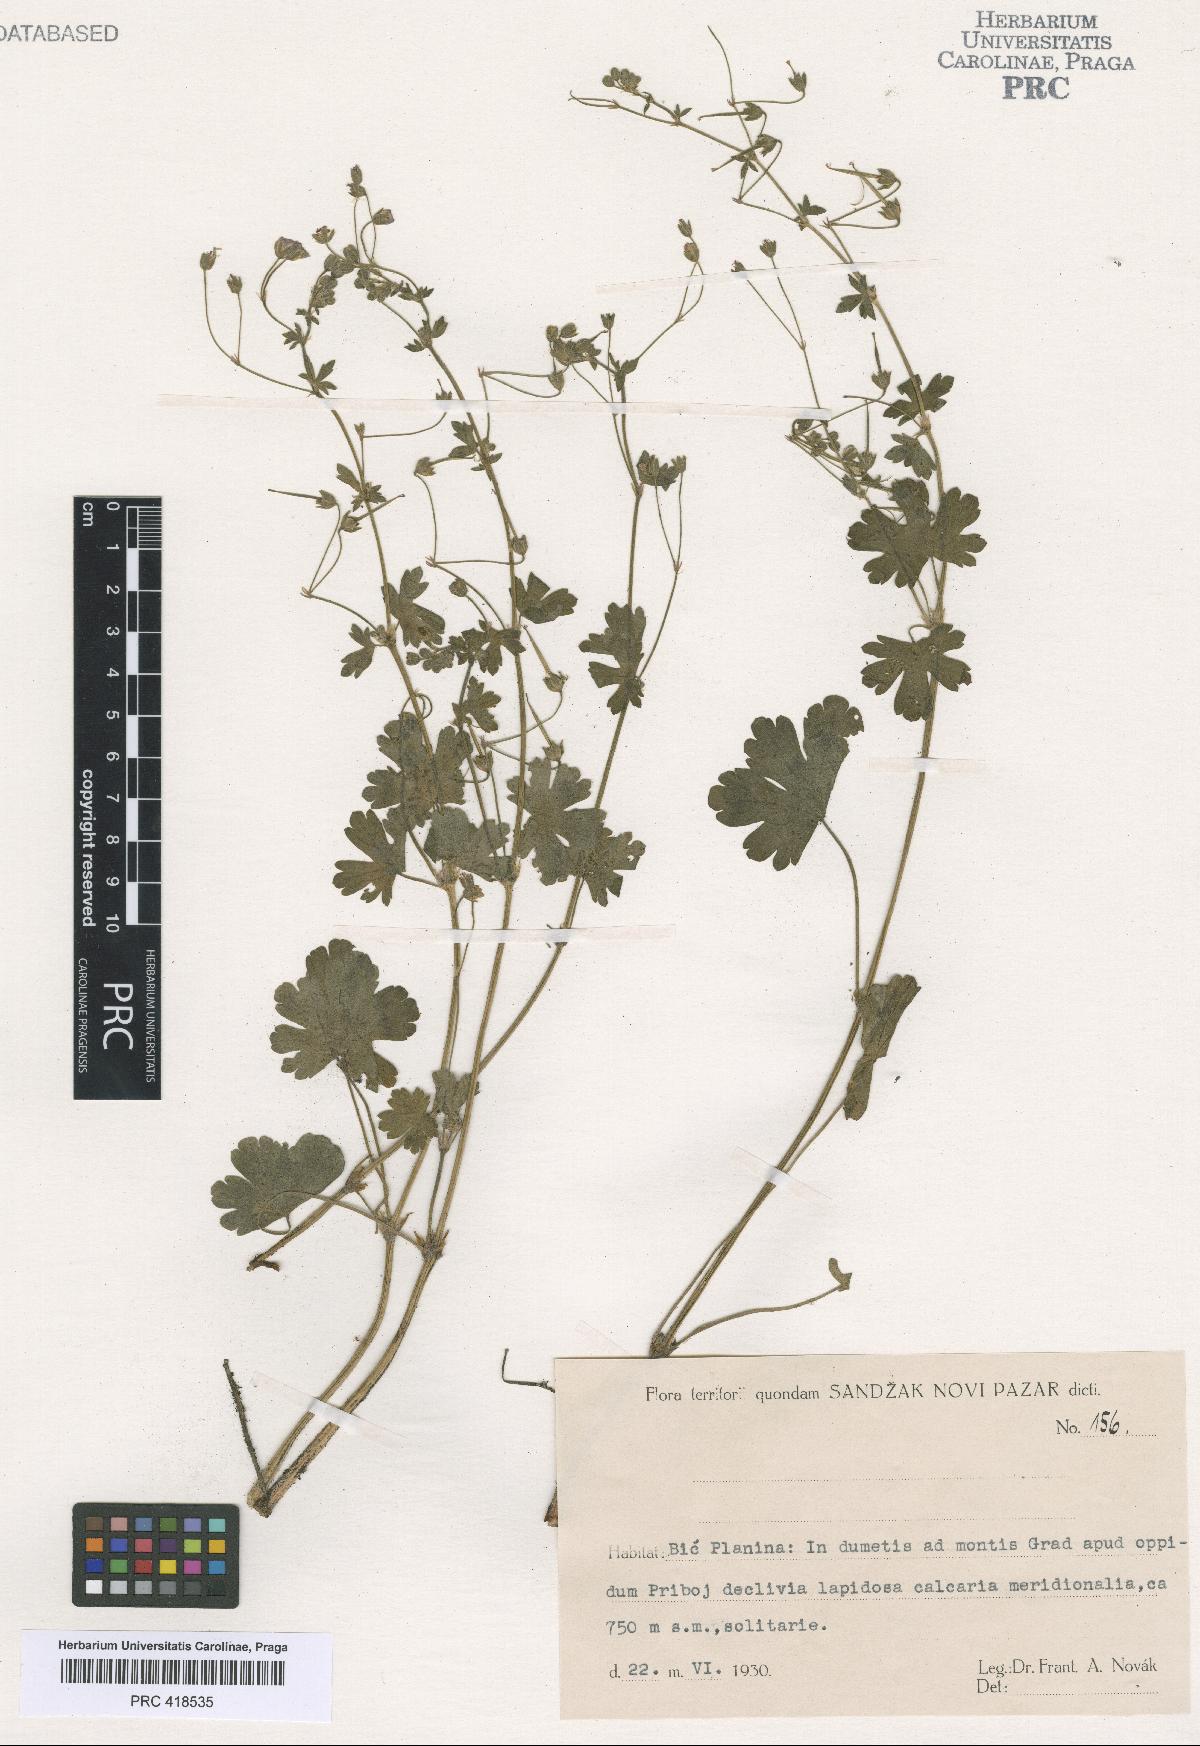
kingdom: Plantae
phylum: Tracheophyta
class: Magnoliopsida
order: Geraniales
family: Geraniaceae
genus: Geranium
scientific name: Geranium pyrenaicum
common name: Hedgerow crane's-bill
